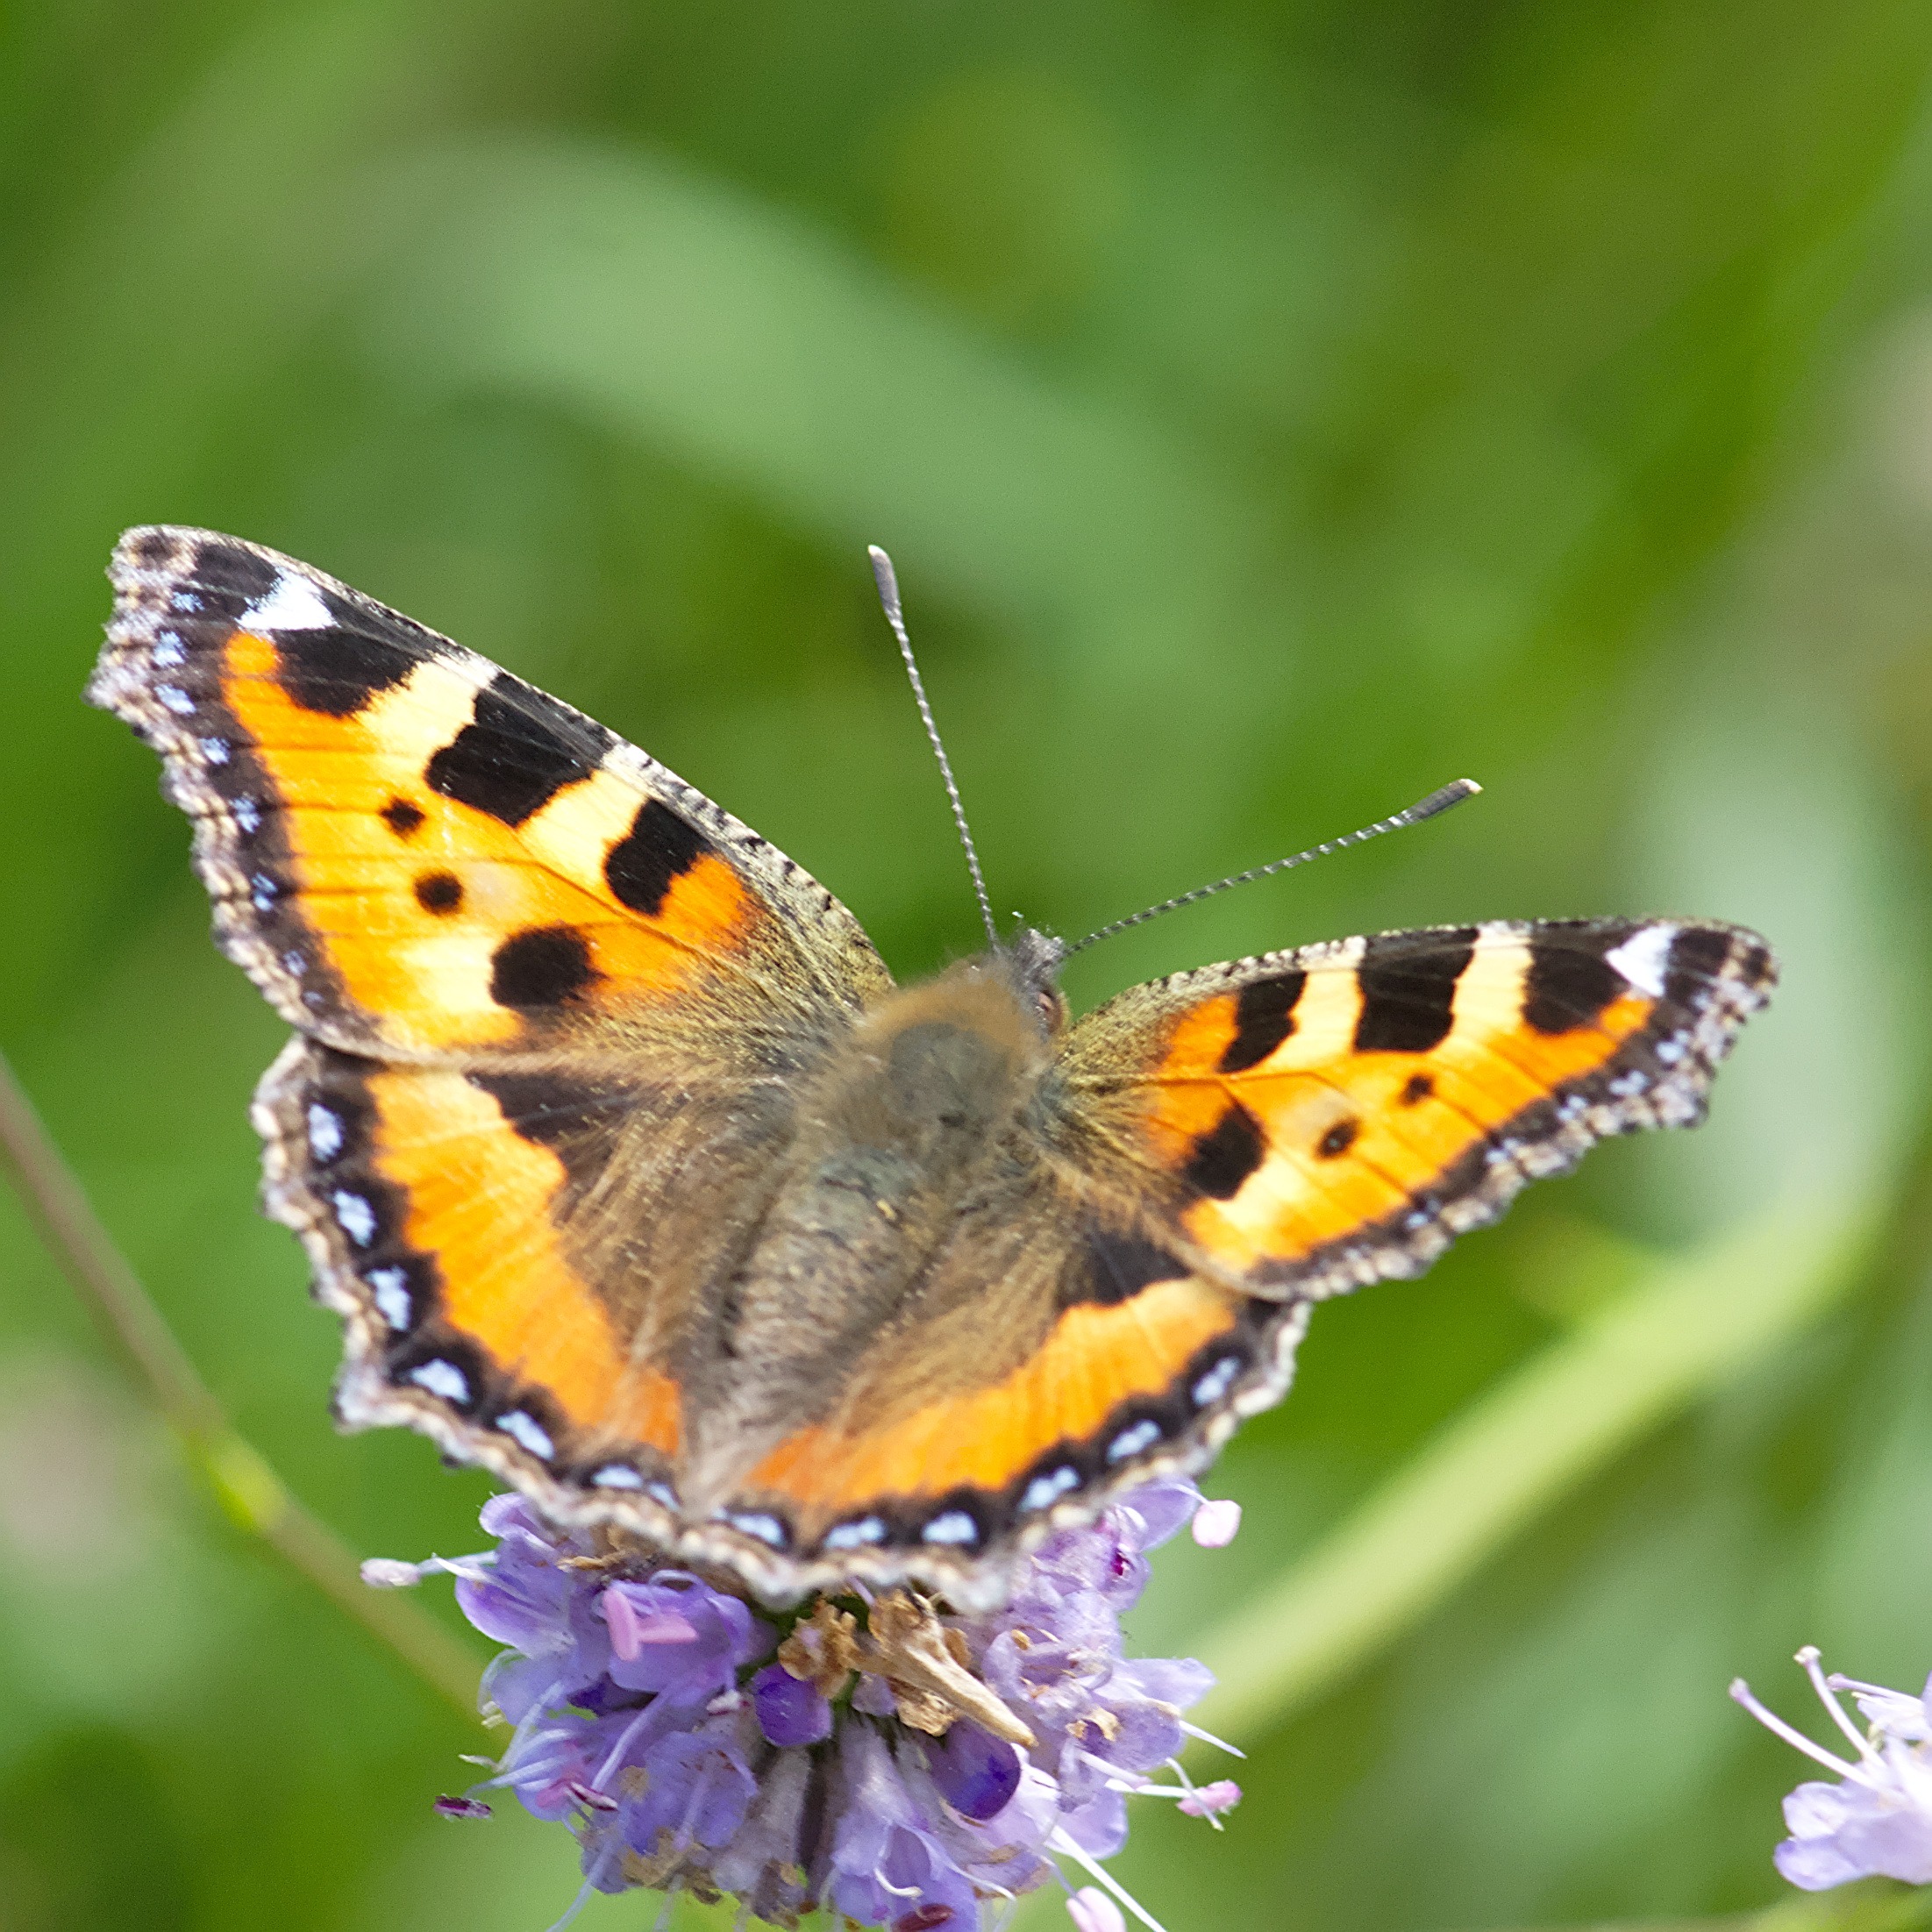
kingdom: Animalia
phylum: Arthropoda
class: Insecta
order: Lepidoptera
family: Nymphalidae
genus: Aglais
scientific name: Aglais urticae
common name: Nældens takvinge
